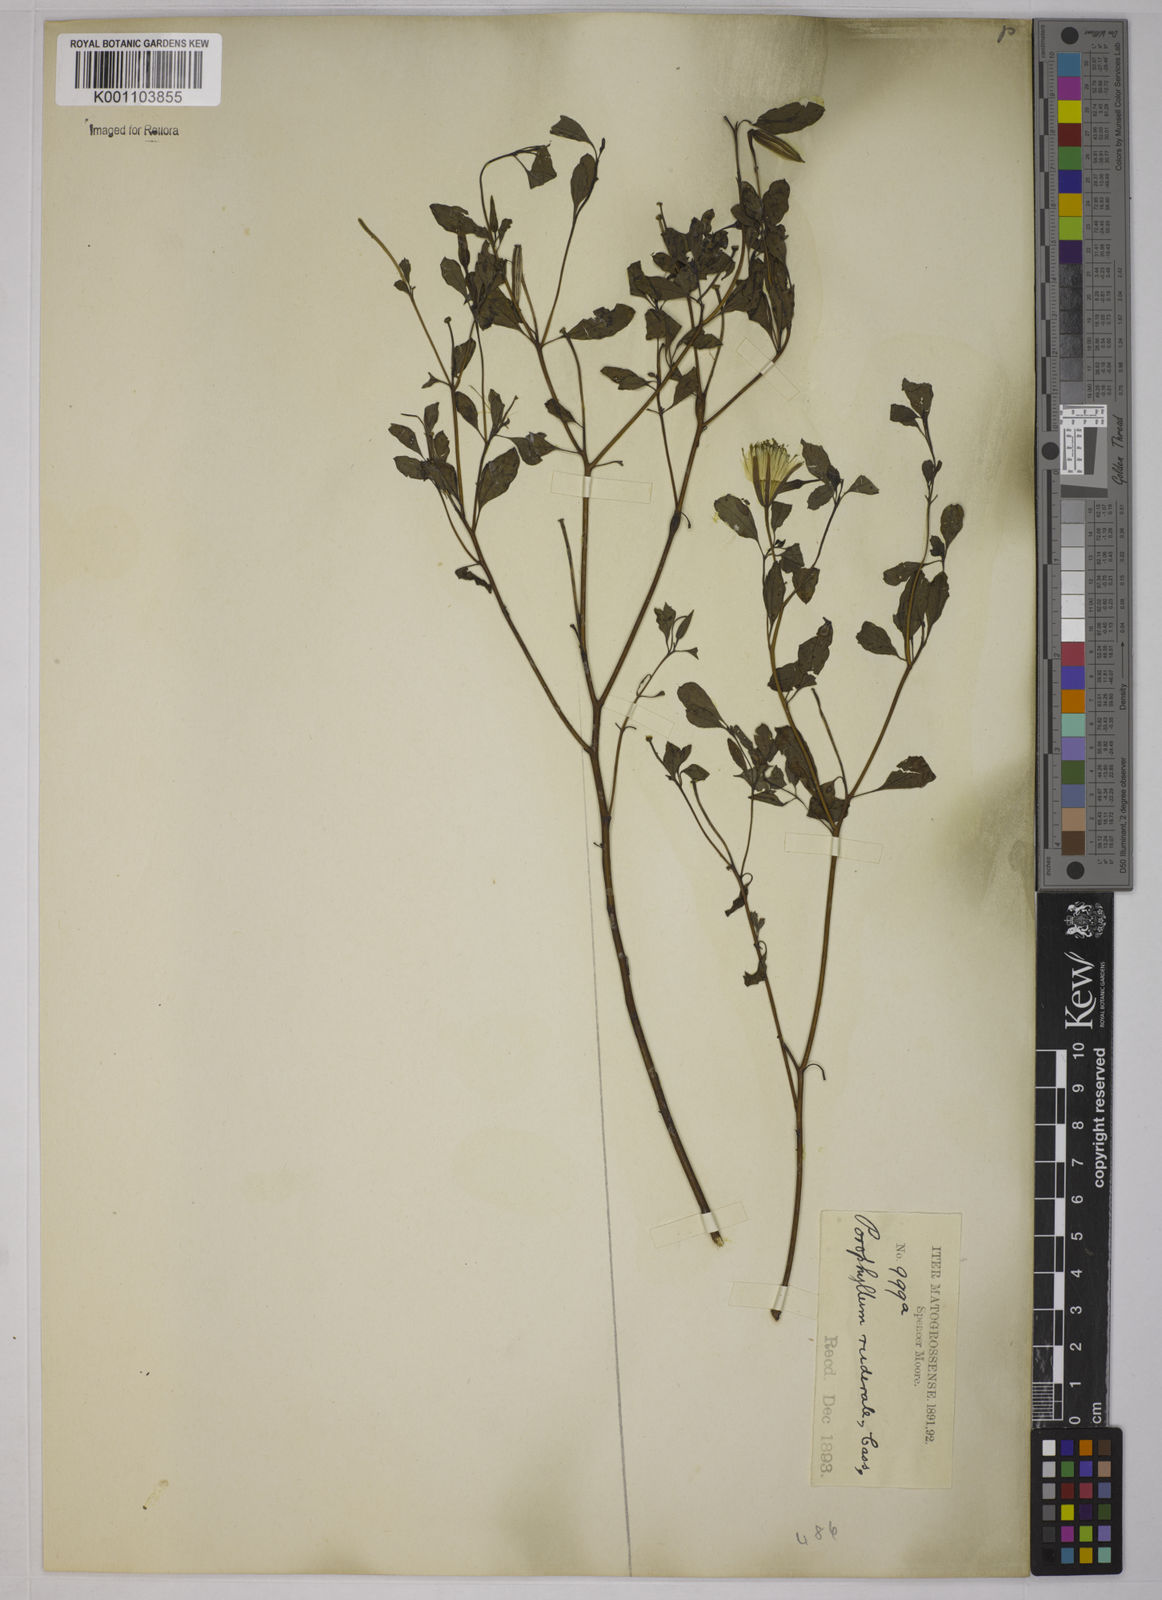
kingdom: Plantae
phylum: Tracheophyta
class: Magnoliopsida
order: Asterales
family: Asteraceae
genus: Porophyllum
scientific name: Porophyllum ruderale
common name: Yerba porosa
